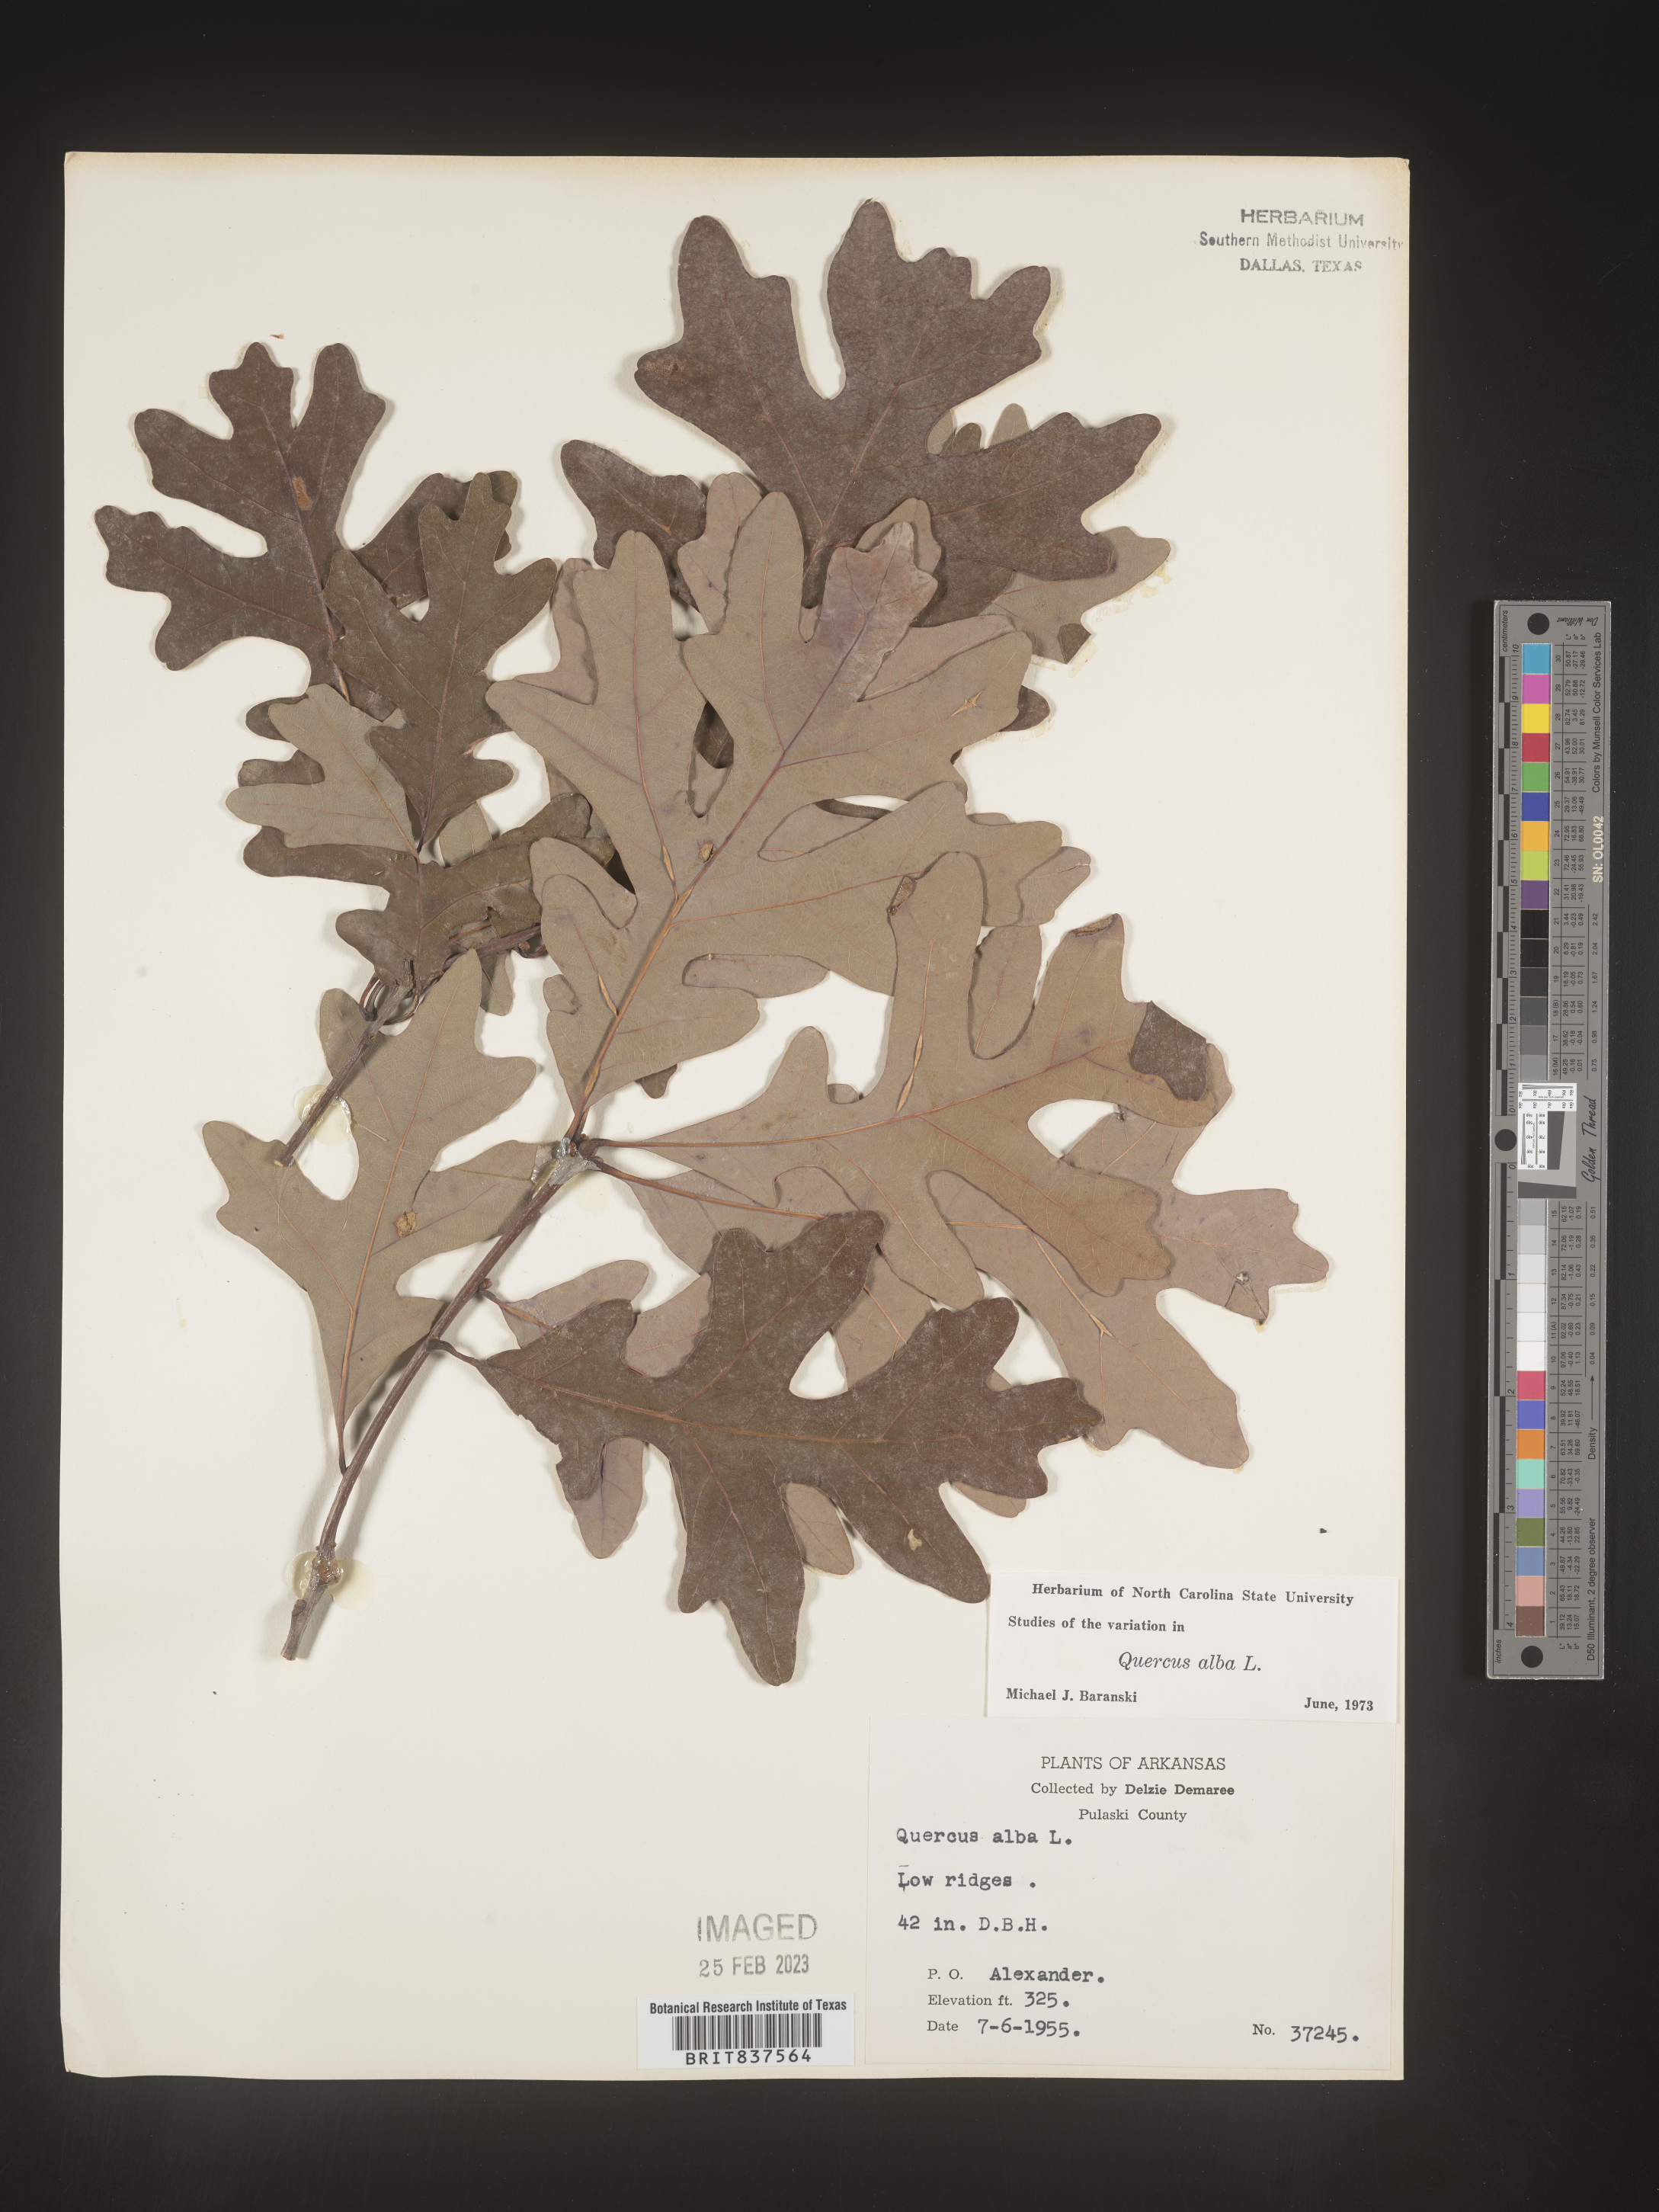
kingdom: Plantae
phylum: Tracheophyta
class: Magnoliopsida
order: Fagales
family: Fagaceae
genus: Quercus
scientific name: Quercus alba
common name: White oak
